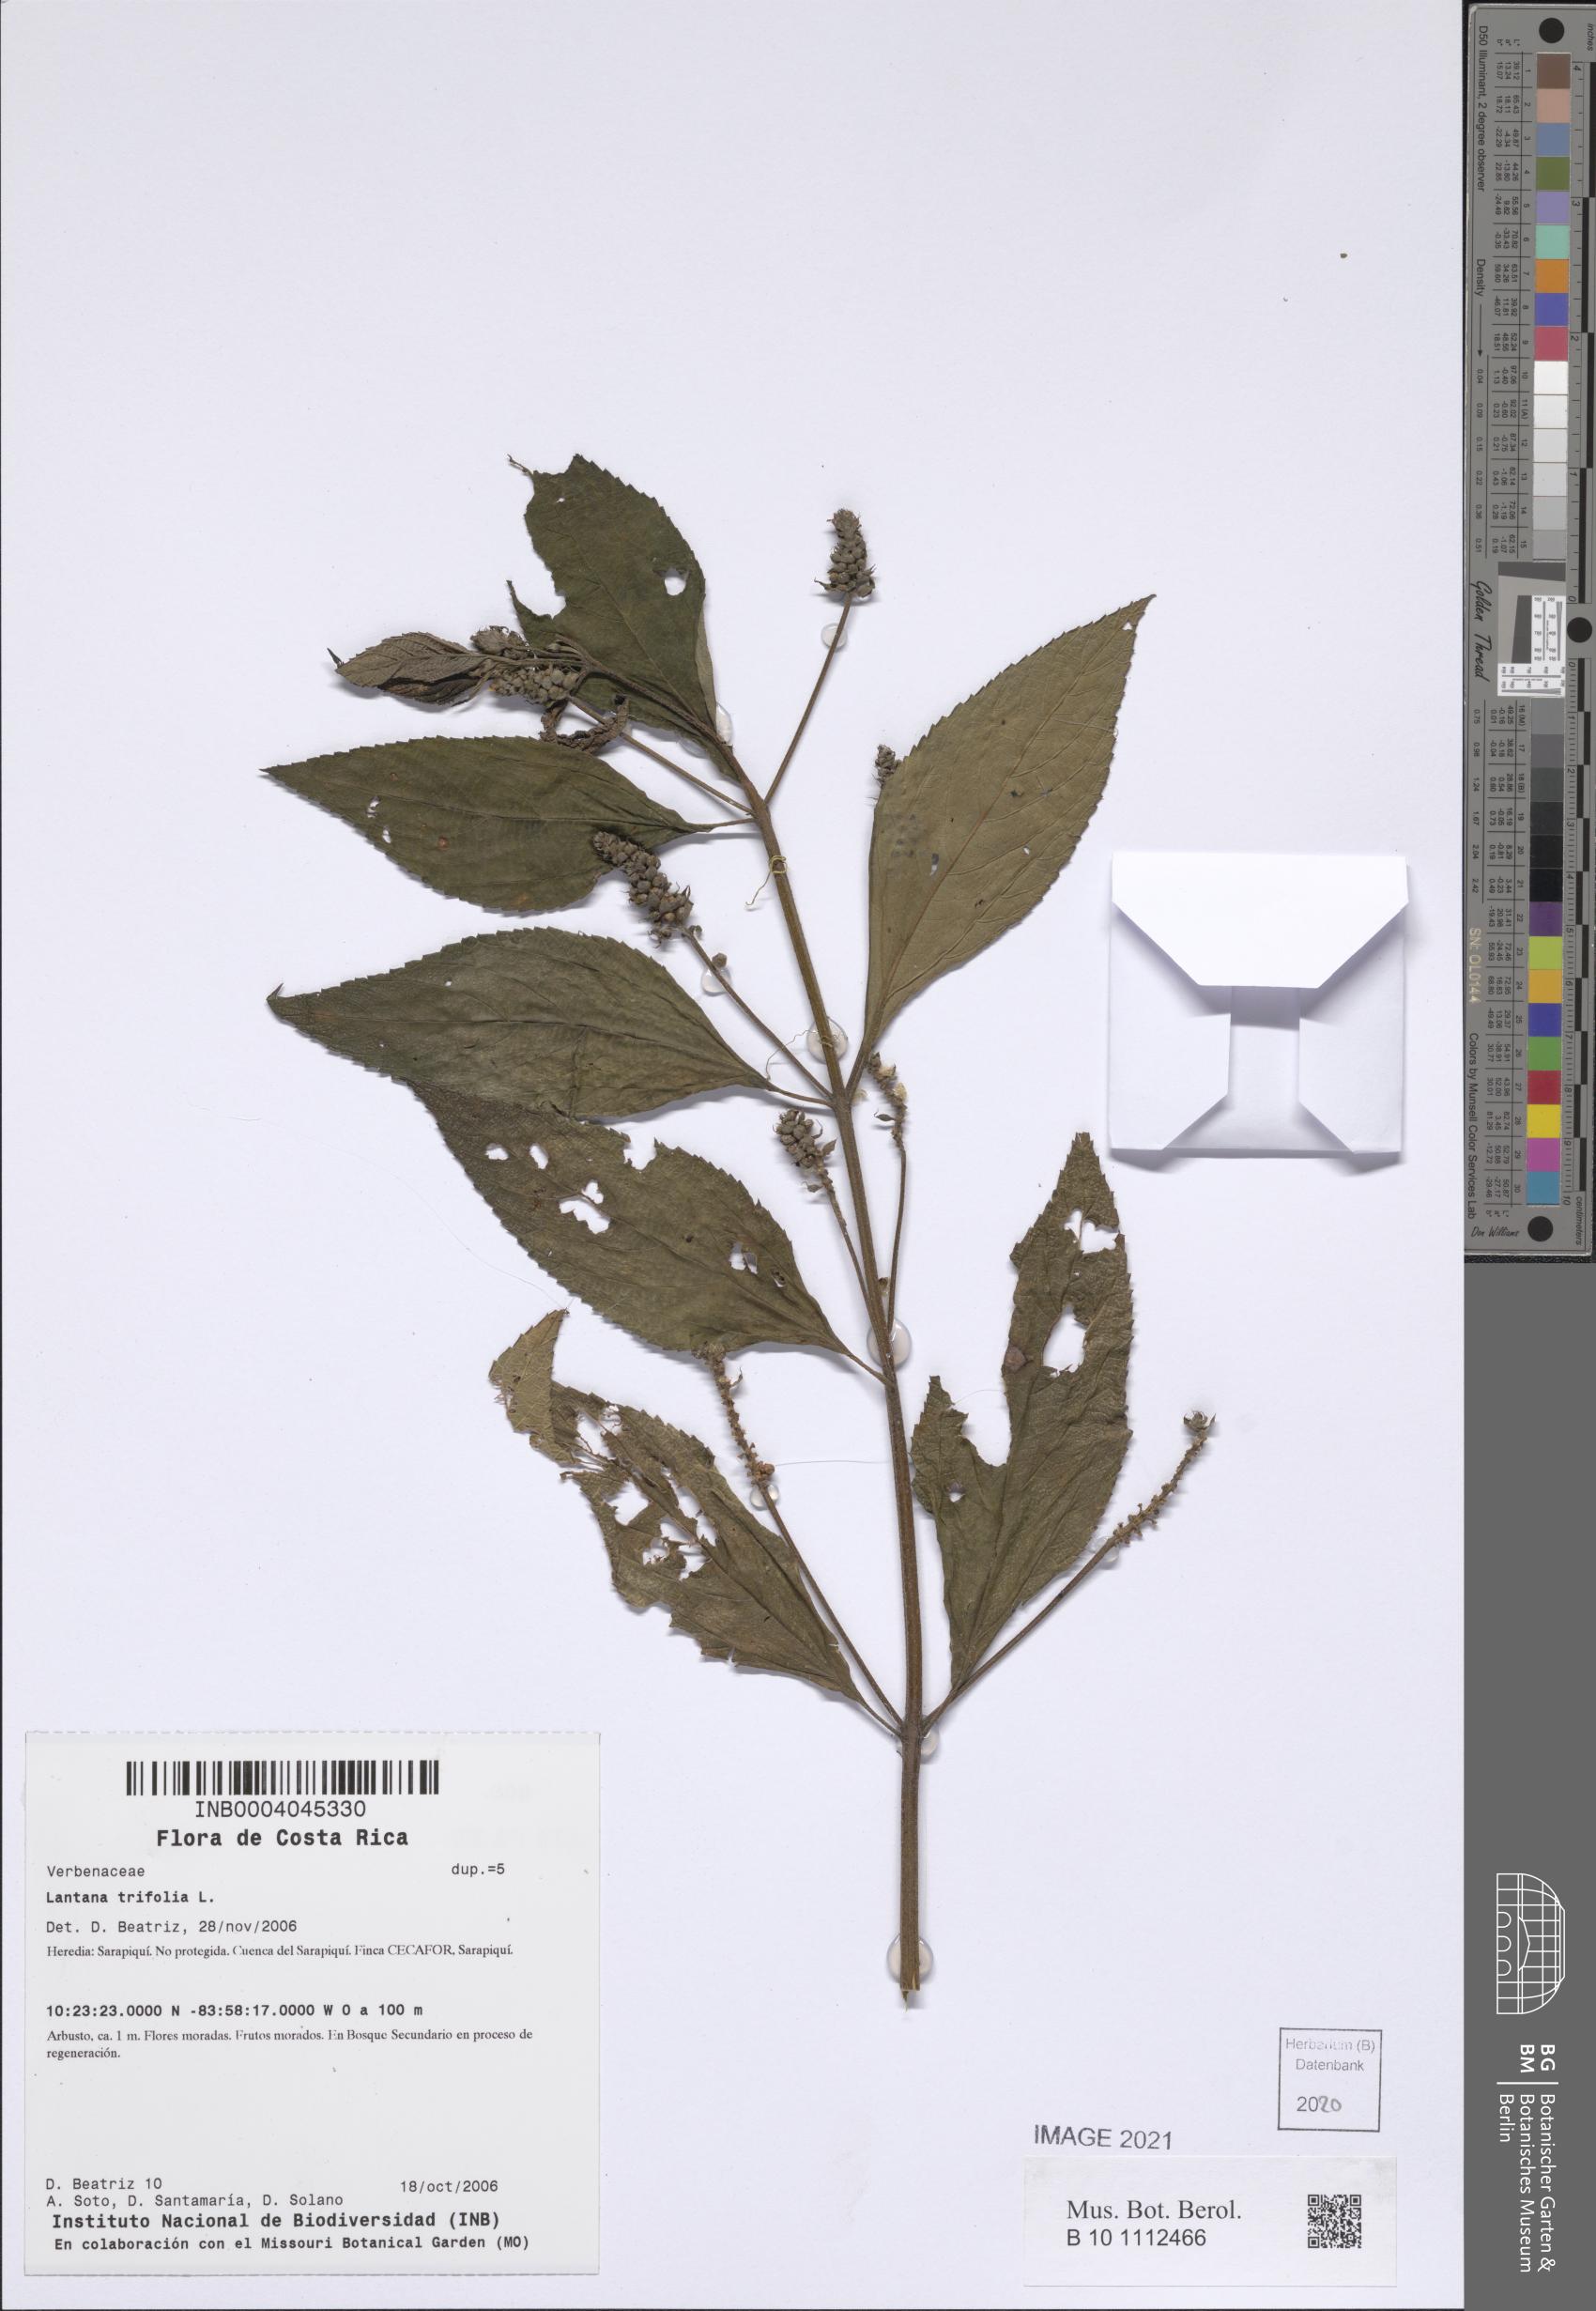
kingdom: Plantae
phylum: Tracheophyta
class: Magnoliopsida
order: Lamiales
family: Verbenaceae
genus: Lantana
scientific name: Lantana trifolia
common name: Sweet-sage
